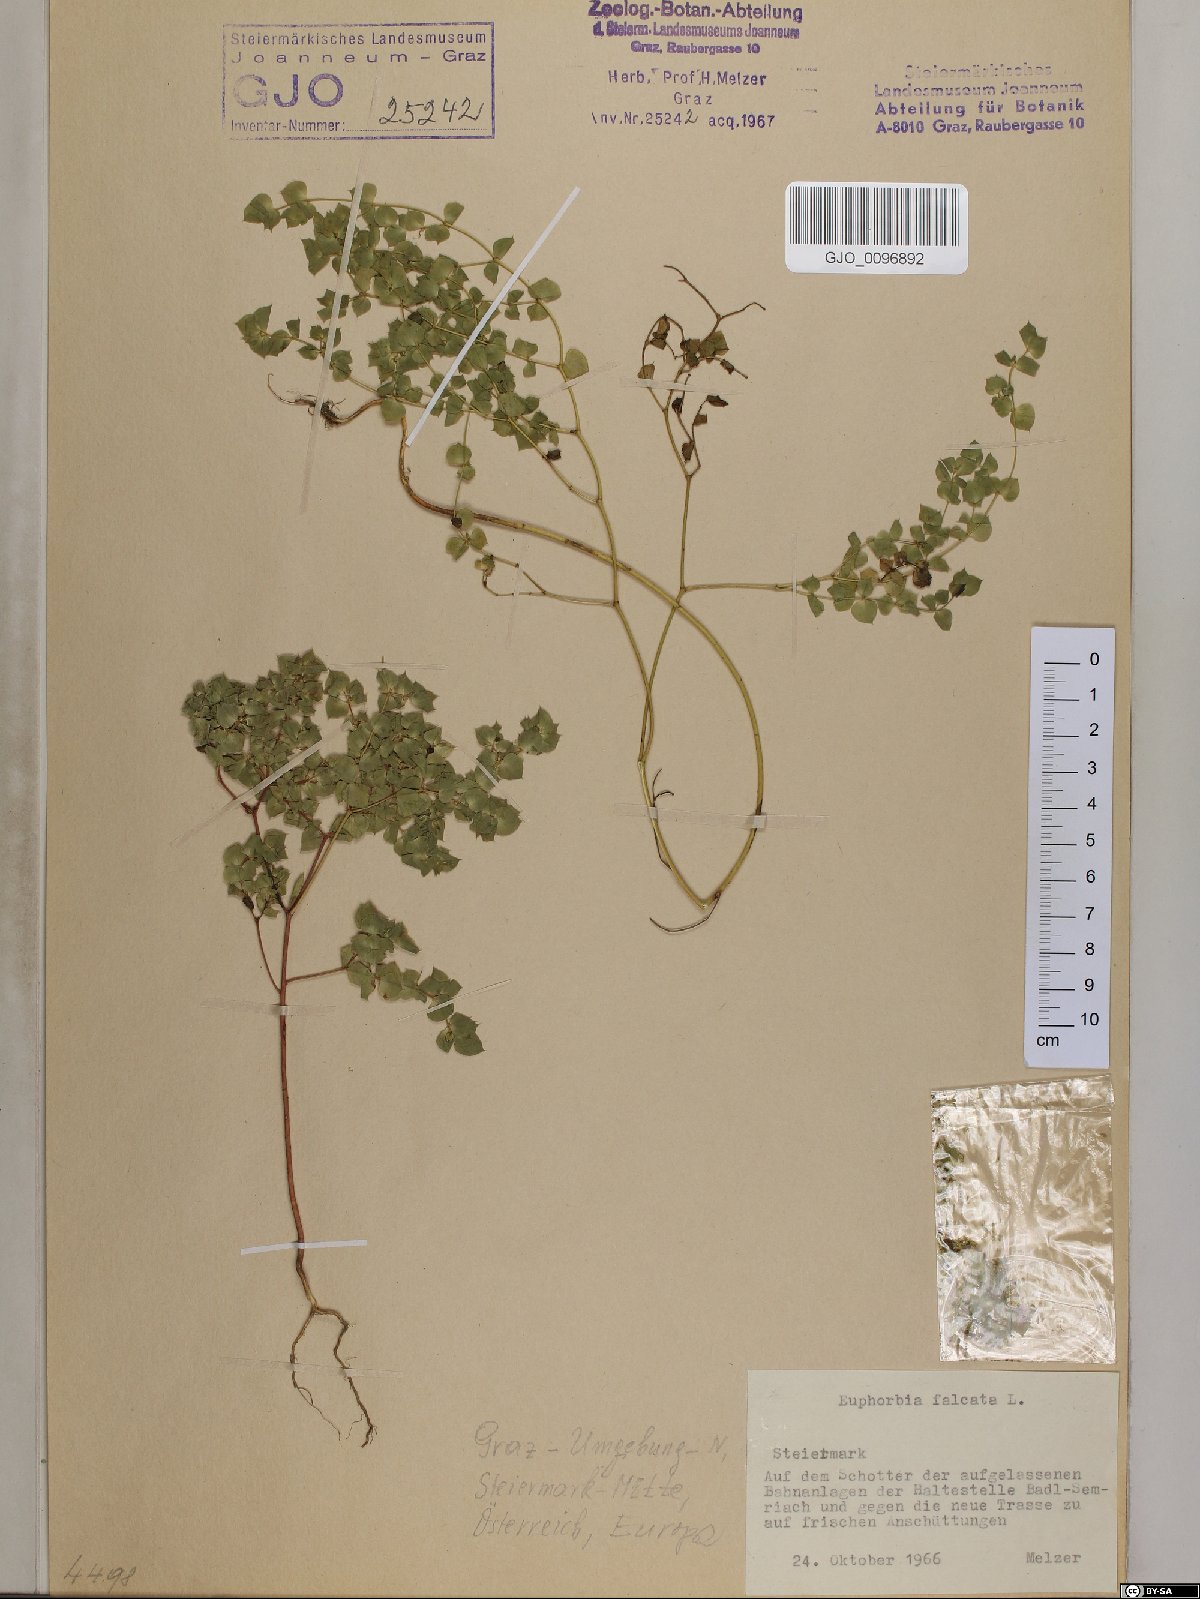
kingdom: Plantae
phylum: Tracheophyta
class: Magnoliopsida
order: Malpighiales
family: Euphorbiaceae
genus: Euphorbia
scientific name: Euphorbia falcata
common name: Sickle spurge
